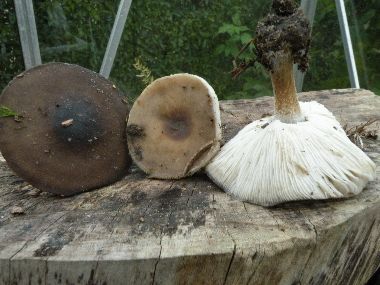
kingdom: Fungi
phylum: Basidiomycota
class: Agaricomycetes
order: Agaricales
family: Tricholomataceae
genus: Melanoleuca
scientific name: Melanoleuca polioleuca
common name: almindelig munkehat
